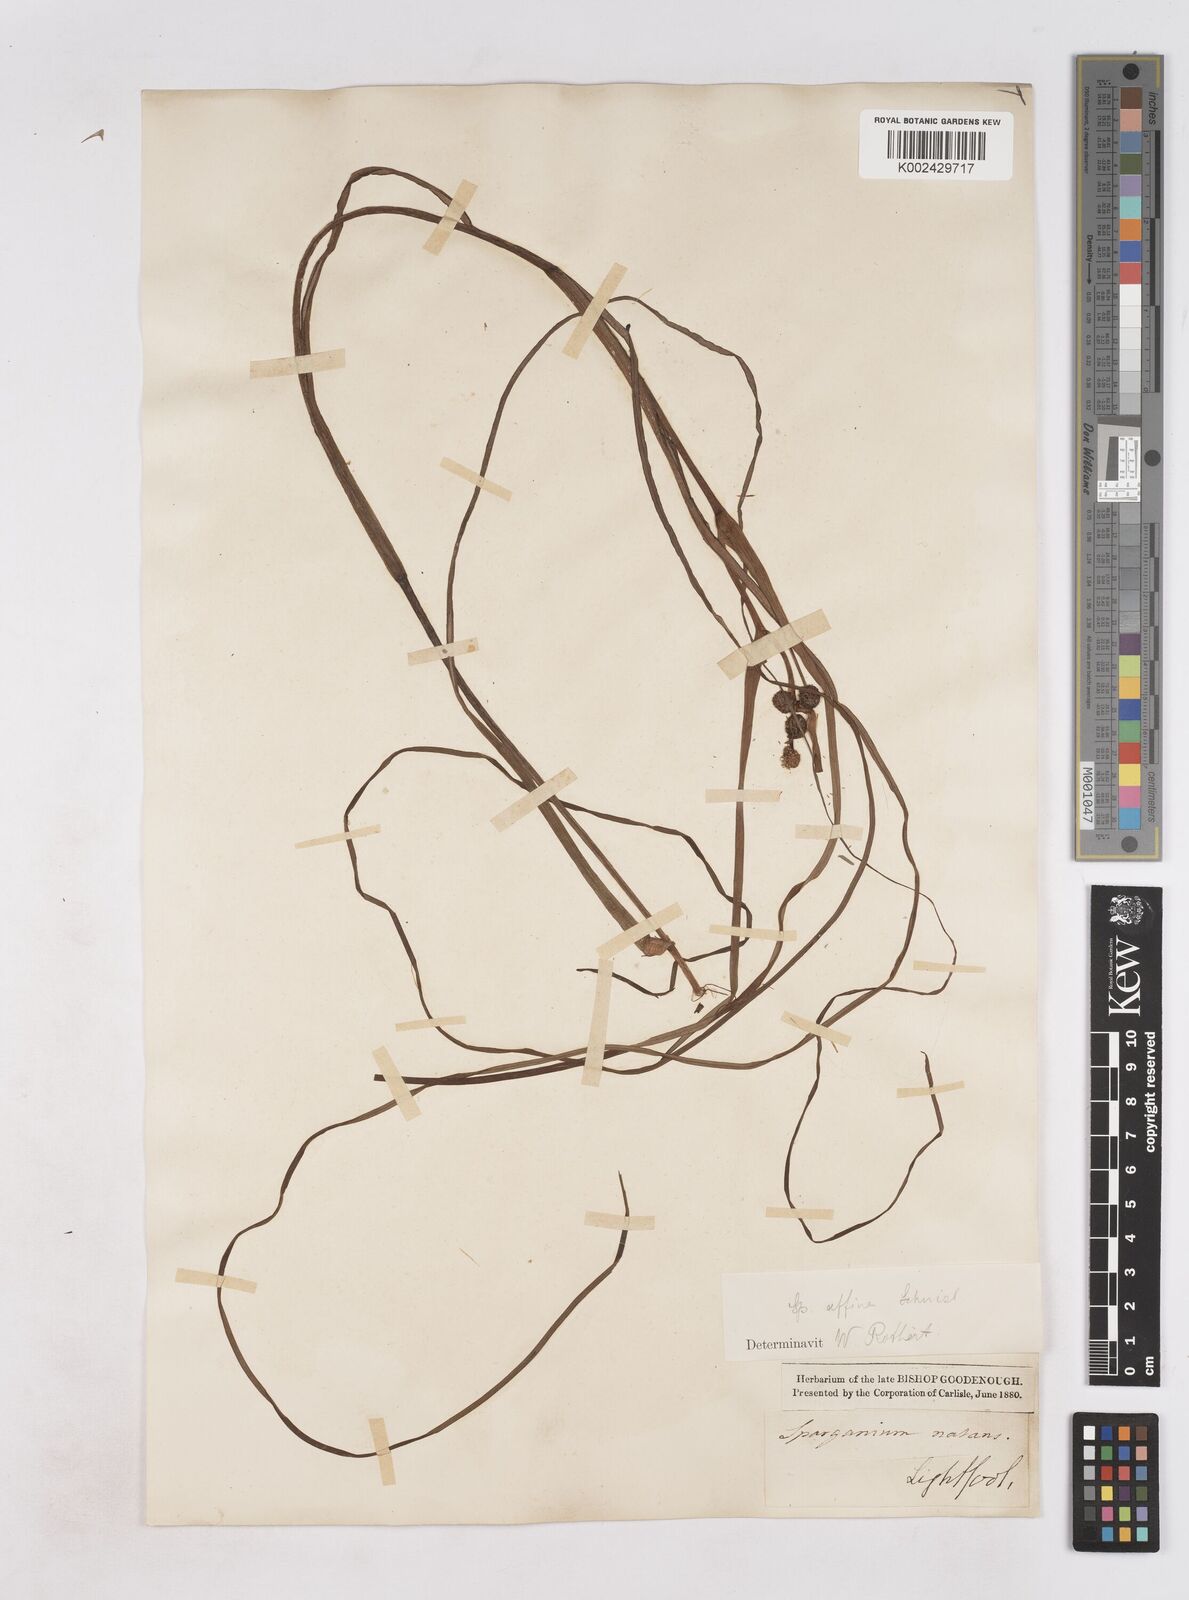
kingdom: Plantae
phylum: Tracheophyta
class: Liliopsida
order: Poales
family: Typhaceae
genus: Sparganium
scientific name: Sparganium angustifolium
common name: Floating bur-reed
